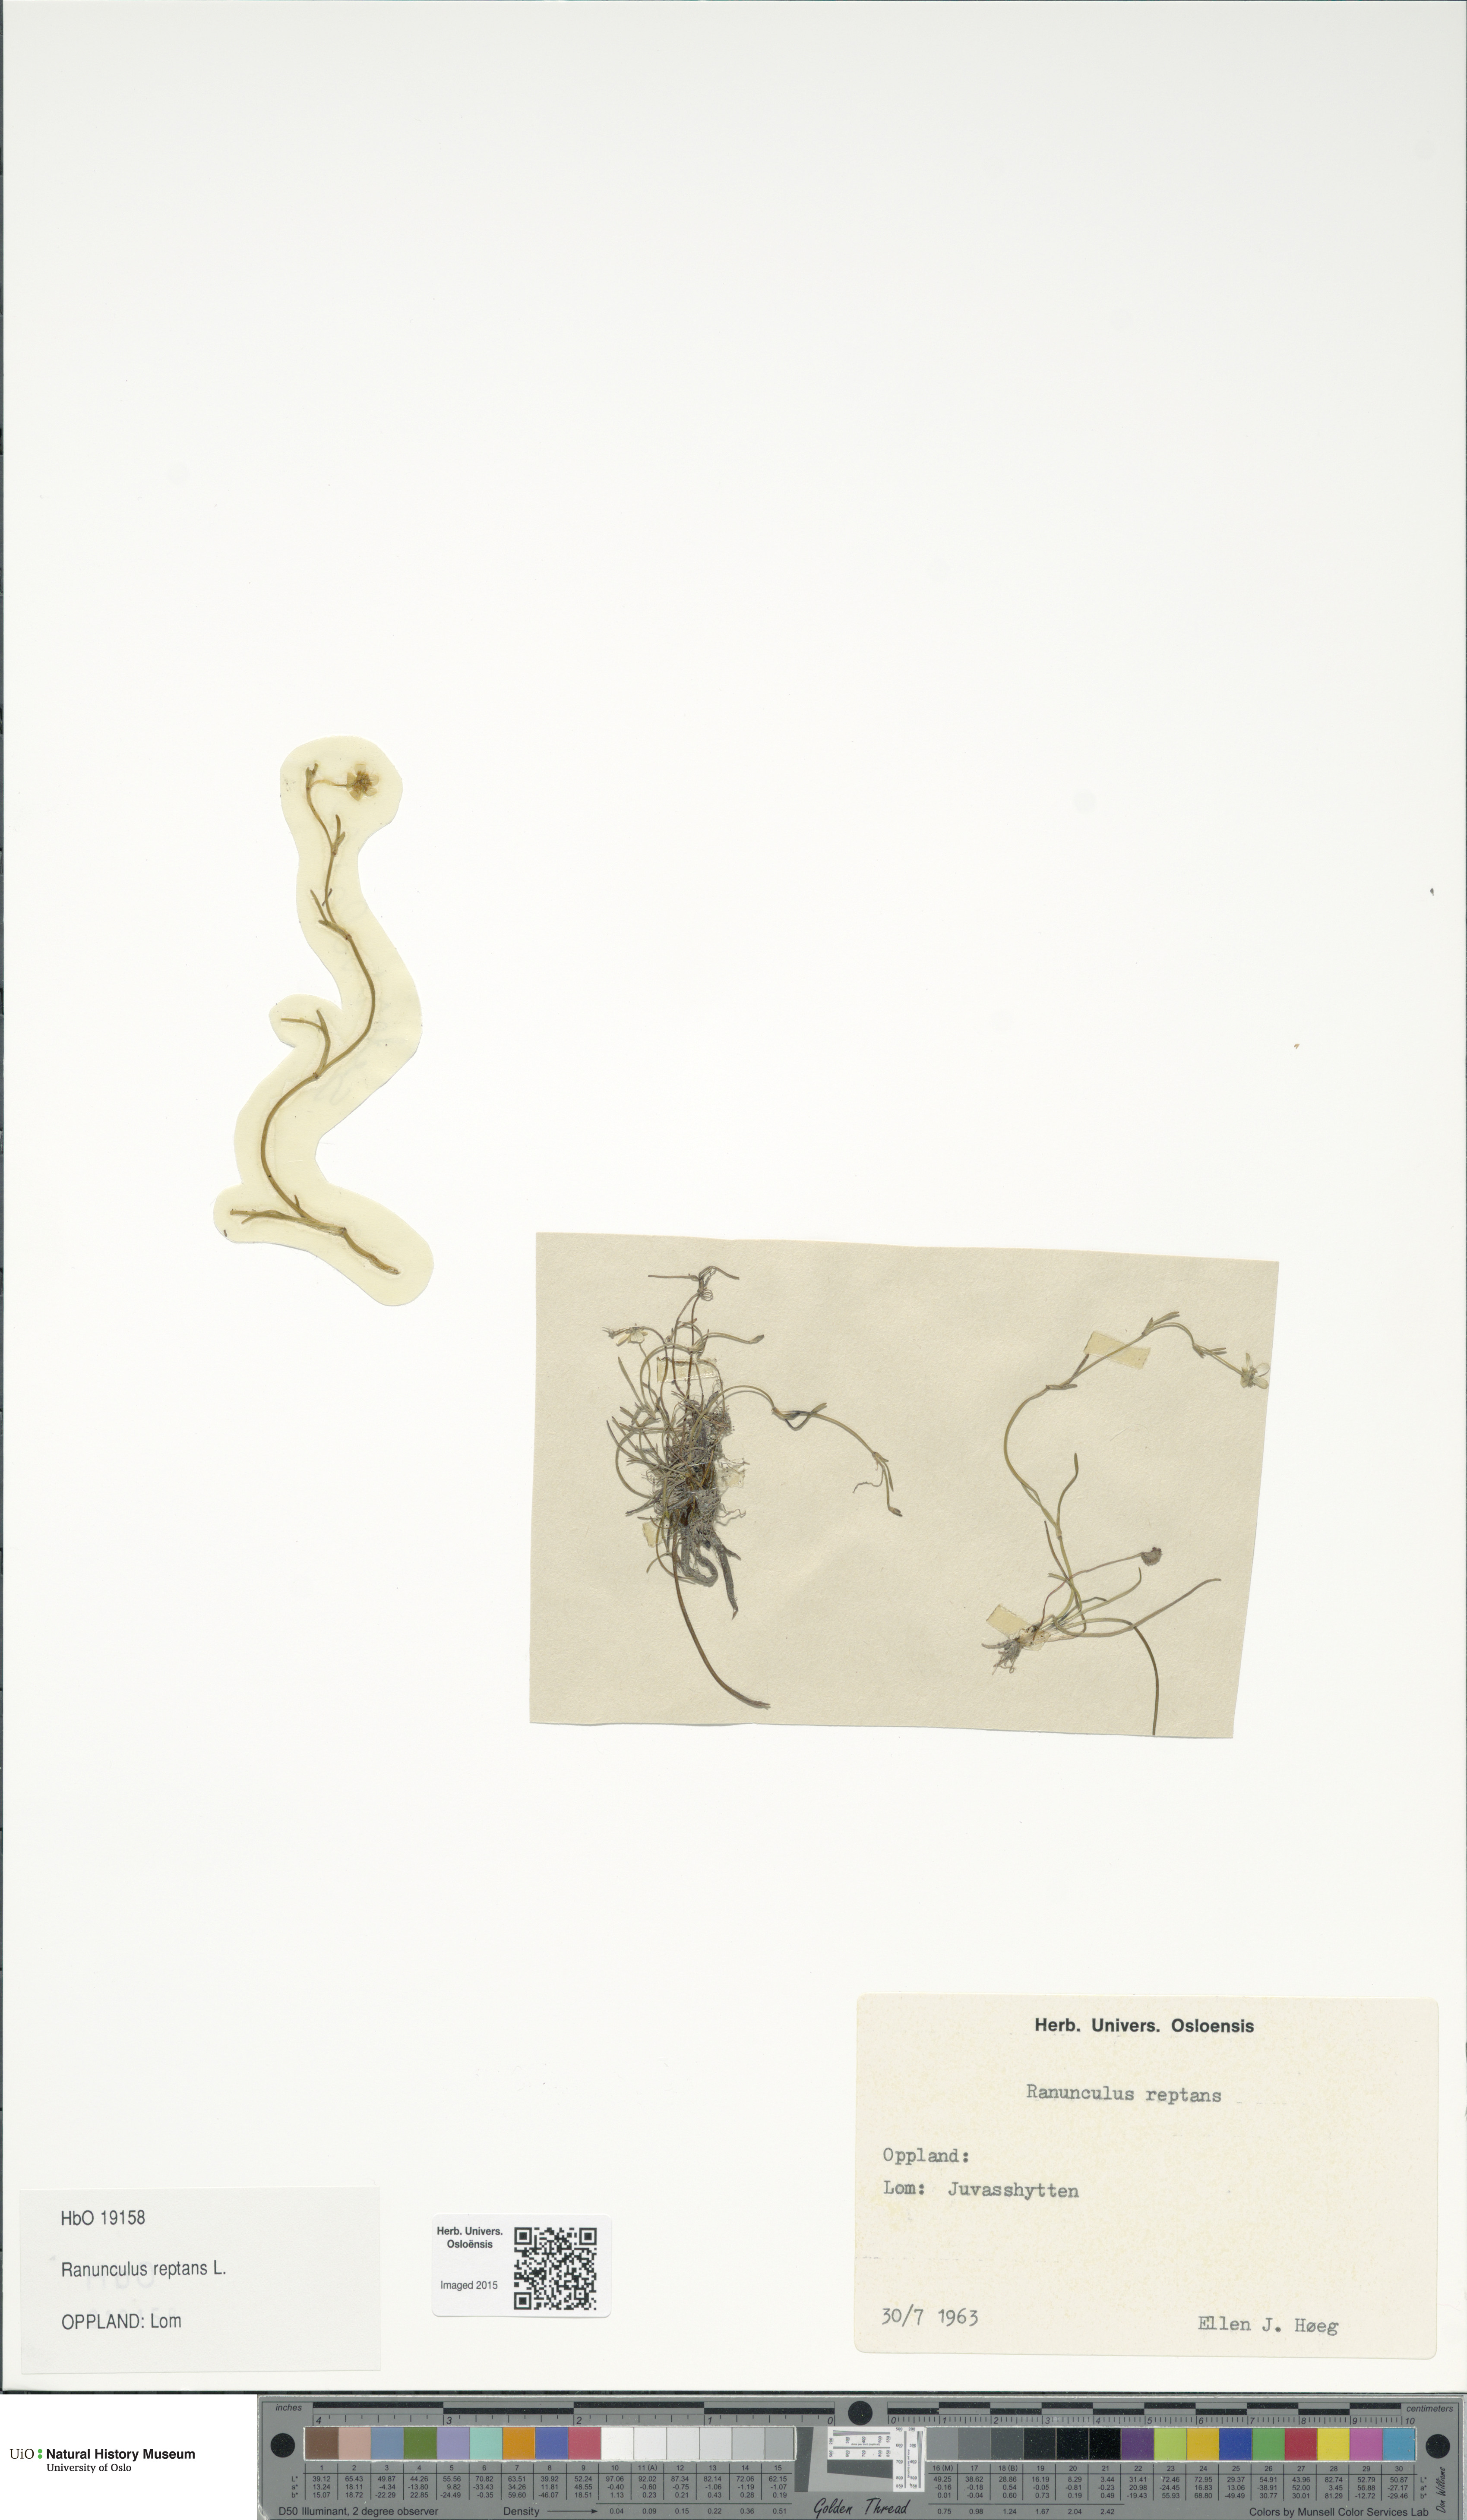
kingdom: Plantae
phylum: Tracheophyta
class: Magnoliopsida
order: Ranunculales
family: Ranunculaceae
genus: Ranunculus
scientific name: Ranunculus reptans
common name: Creeping spearwort
